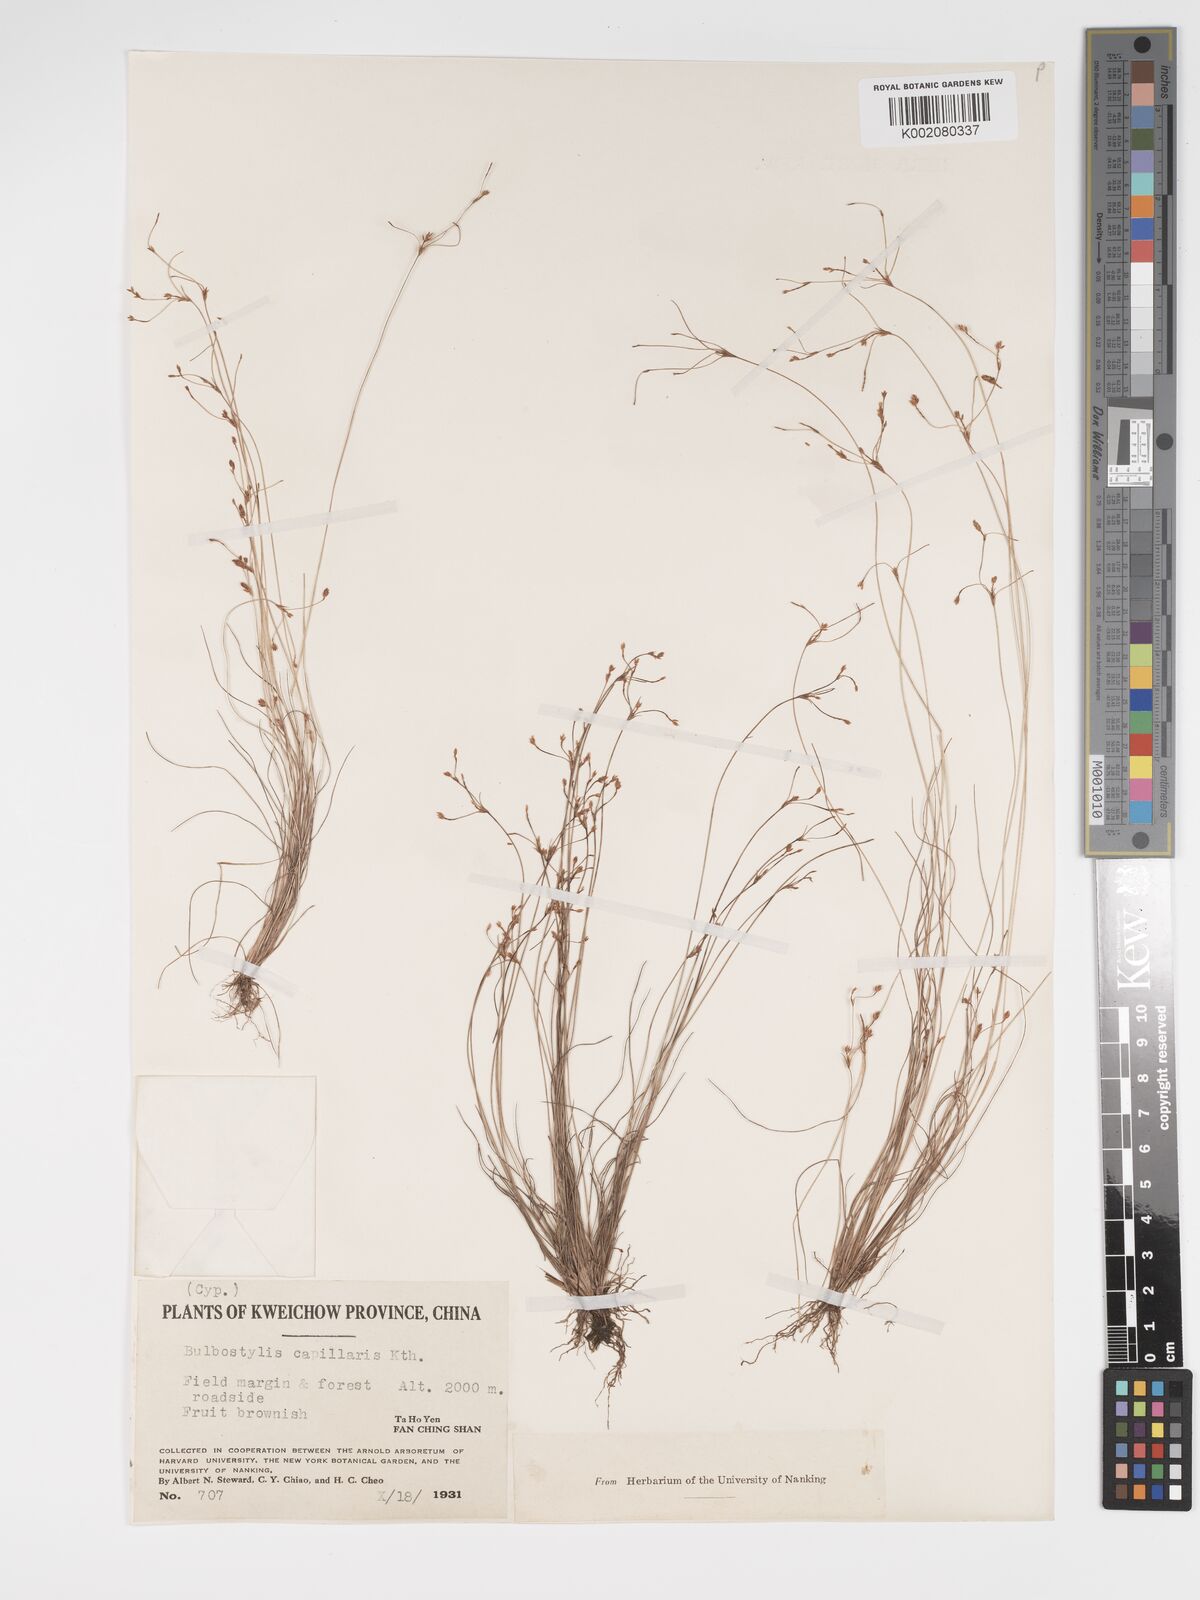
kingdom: Plantae
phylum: Tracheophyta
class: Liliopsida
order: Poales
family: Cyperaceae
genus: Bulbostylis
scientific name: Bulbostylis capillaris
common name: Densetuft hairsedge
